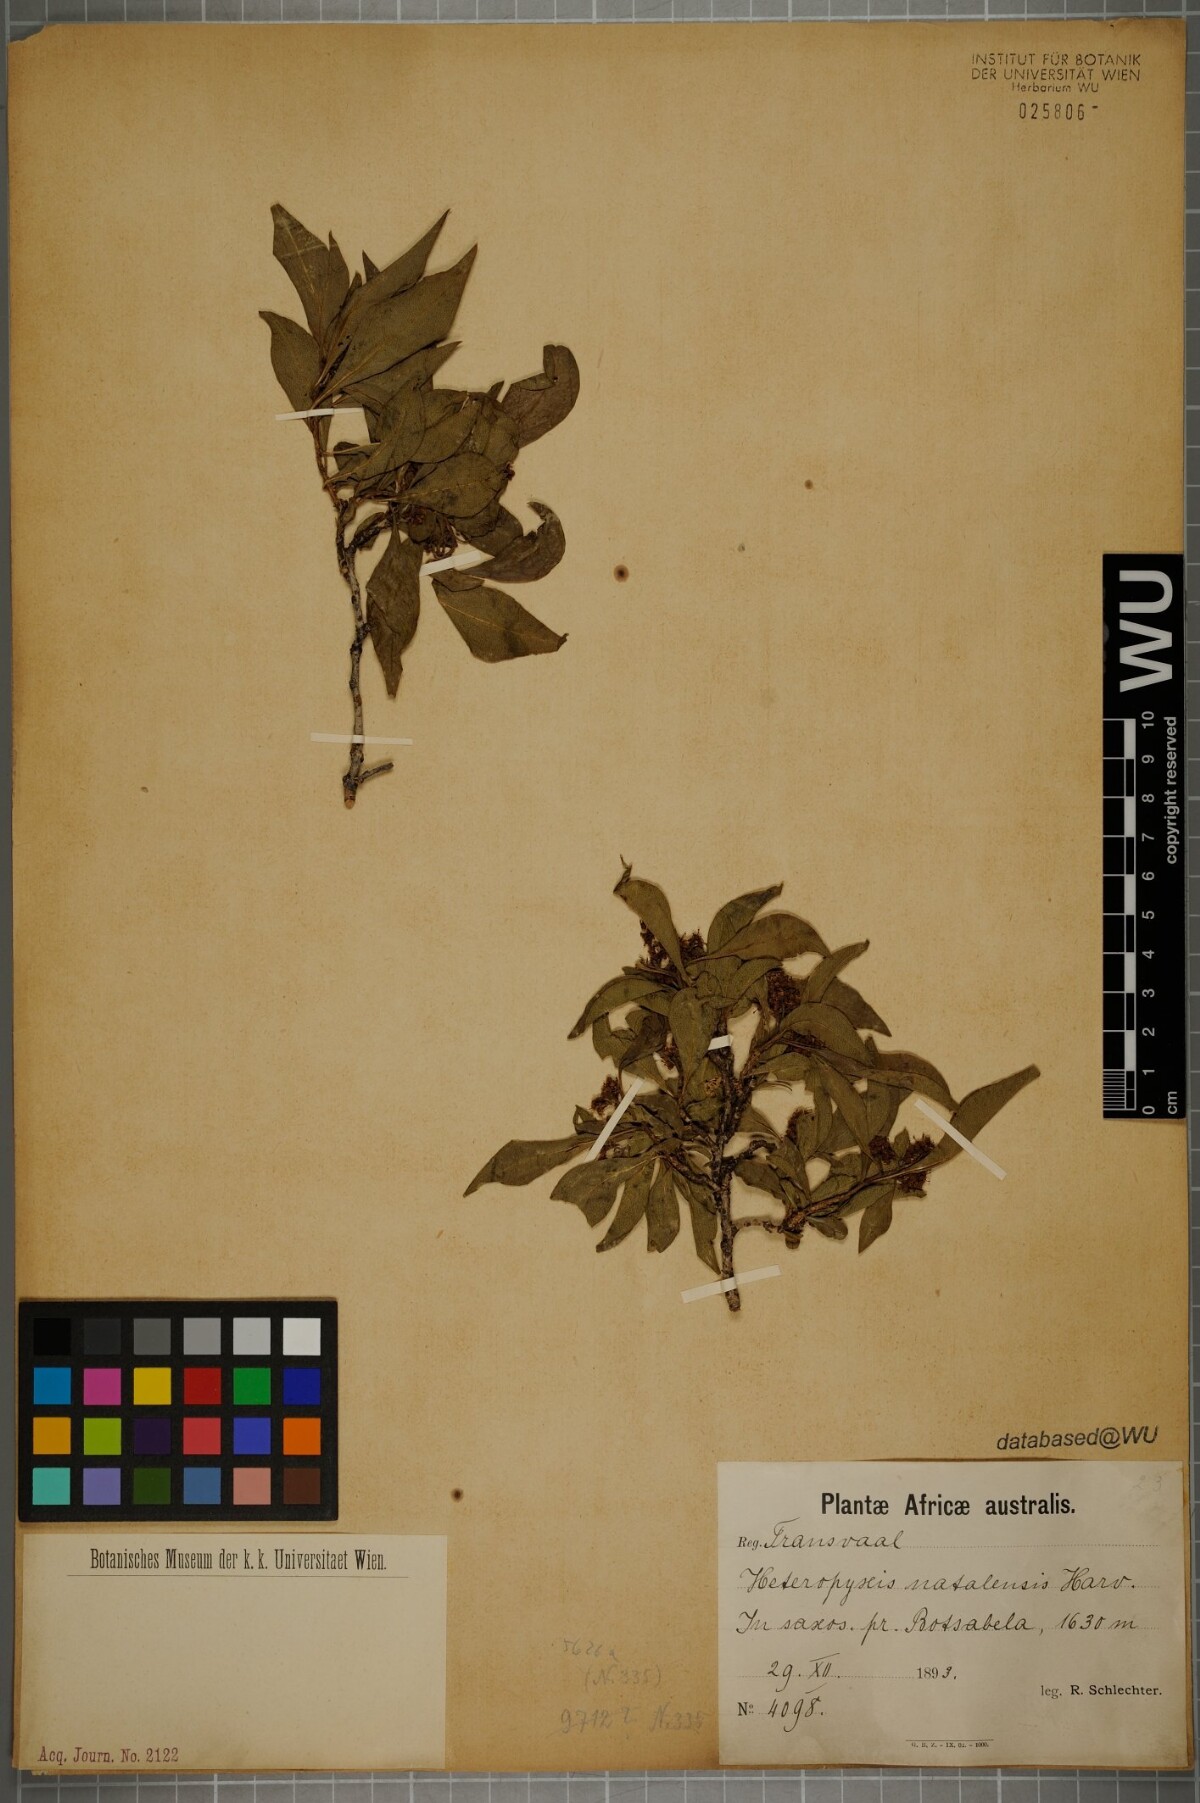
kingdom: Plantae
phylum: Tracheophyta
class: Magnoliopsida
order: Myrtales
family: Myrtaceae
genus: Heteropyxis
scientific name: Heteropyxis natalensis
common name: Lavender tree
